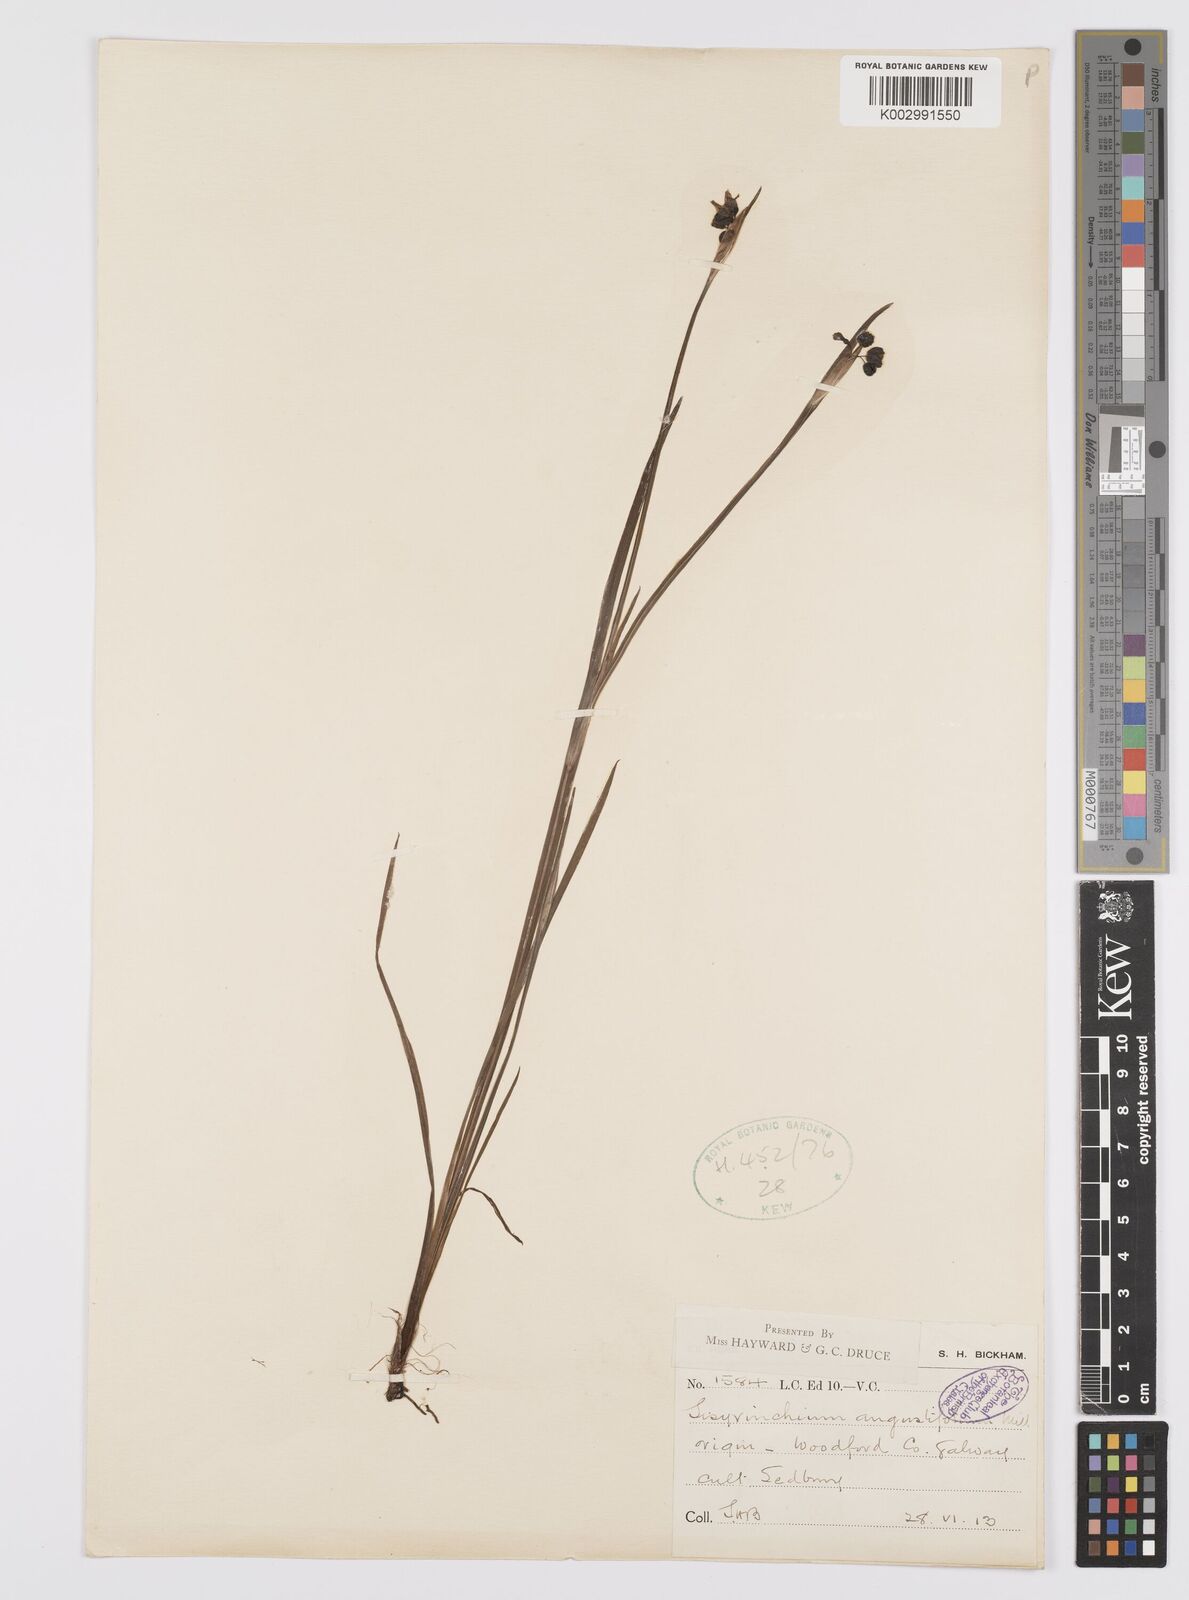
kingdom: Plantae
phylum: Tracheophyta
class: Liliopsida
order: Asparagales
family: Iridaceae
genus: Sisyrinchium
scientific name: Sisyrinchium angustifolium
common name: Narrow-leaf blue-eyed-grass
